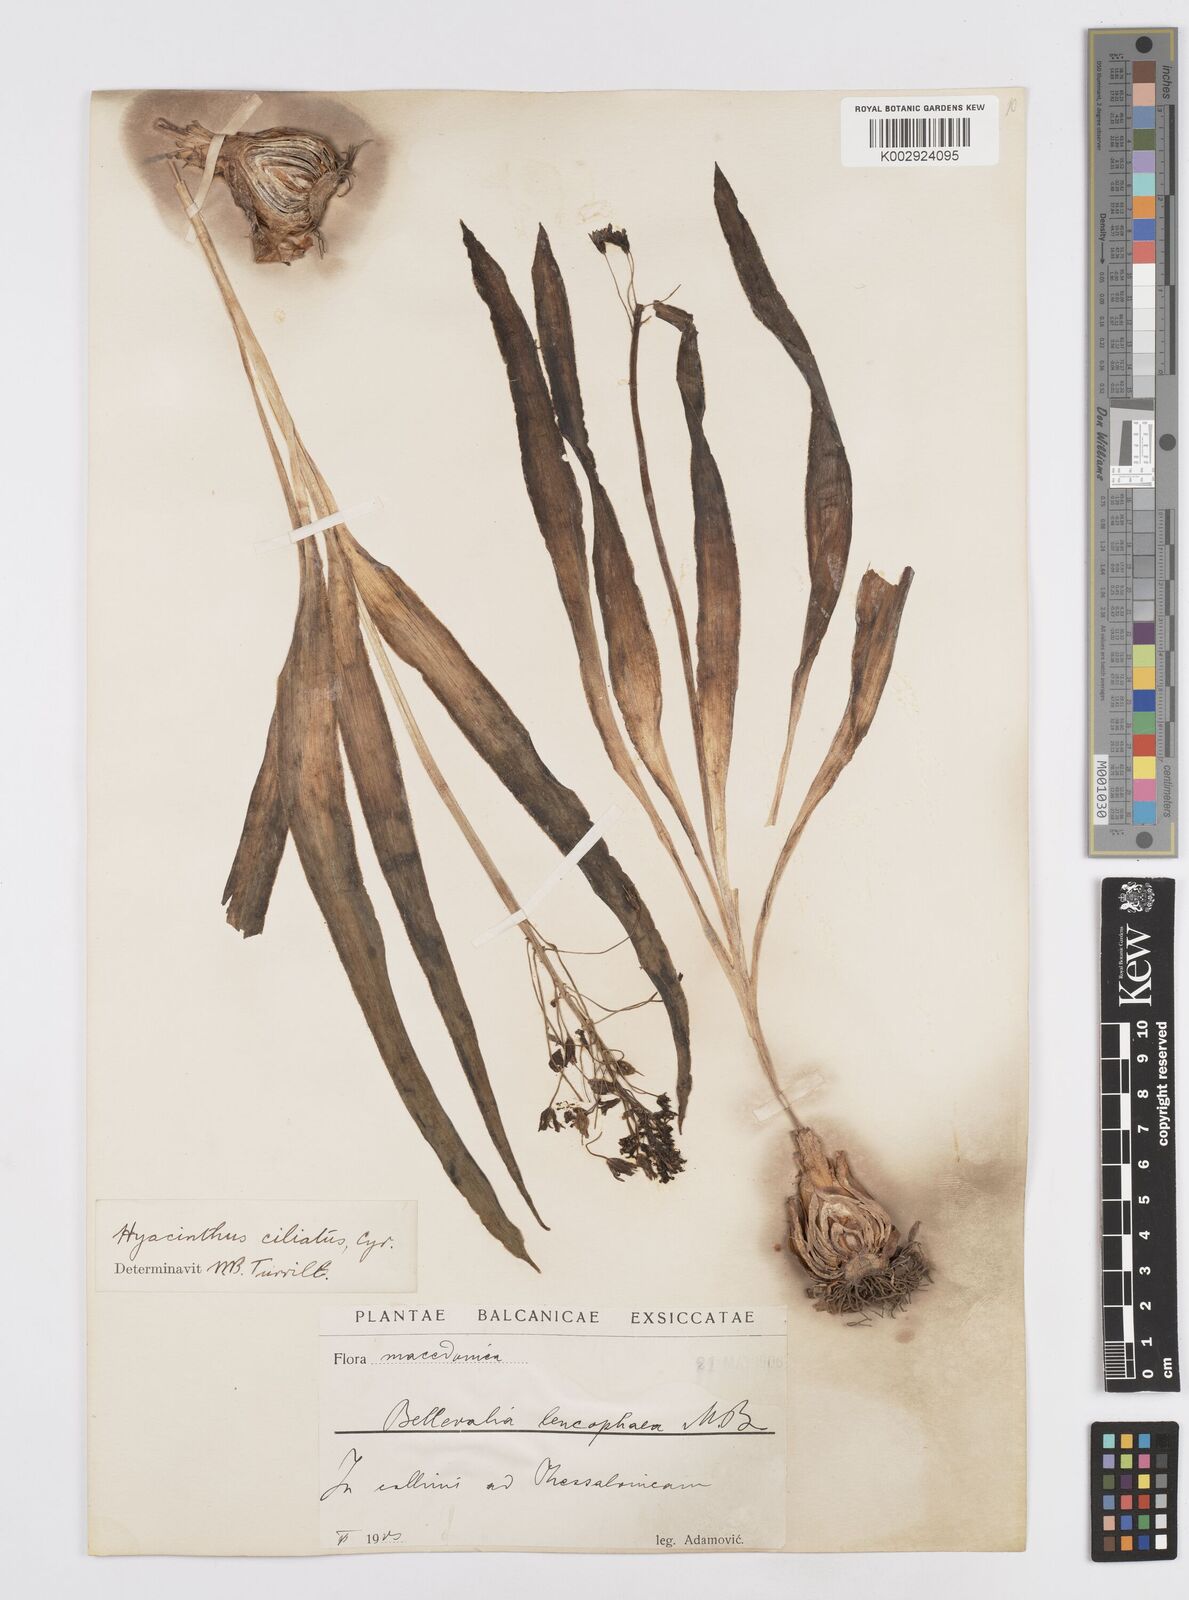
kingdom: Plantae
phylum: Tracheophyta
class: Liliopsida
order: Asparagales
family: Asparagaceae
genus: Bellevalia
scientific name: Bellevalia ciliata
